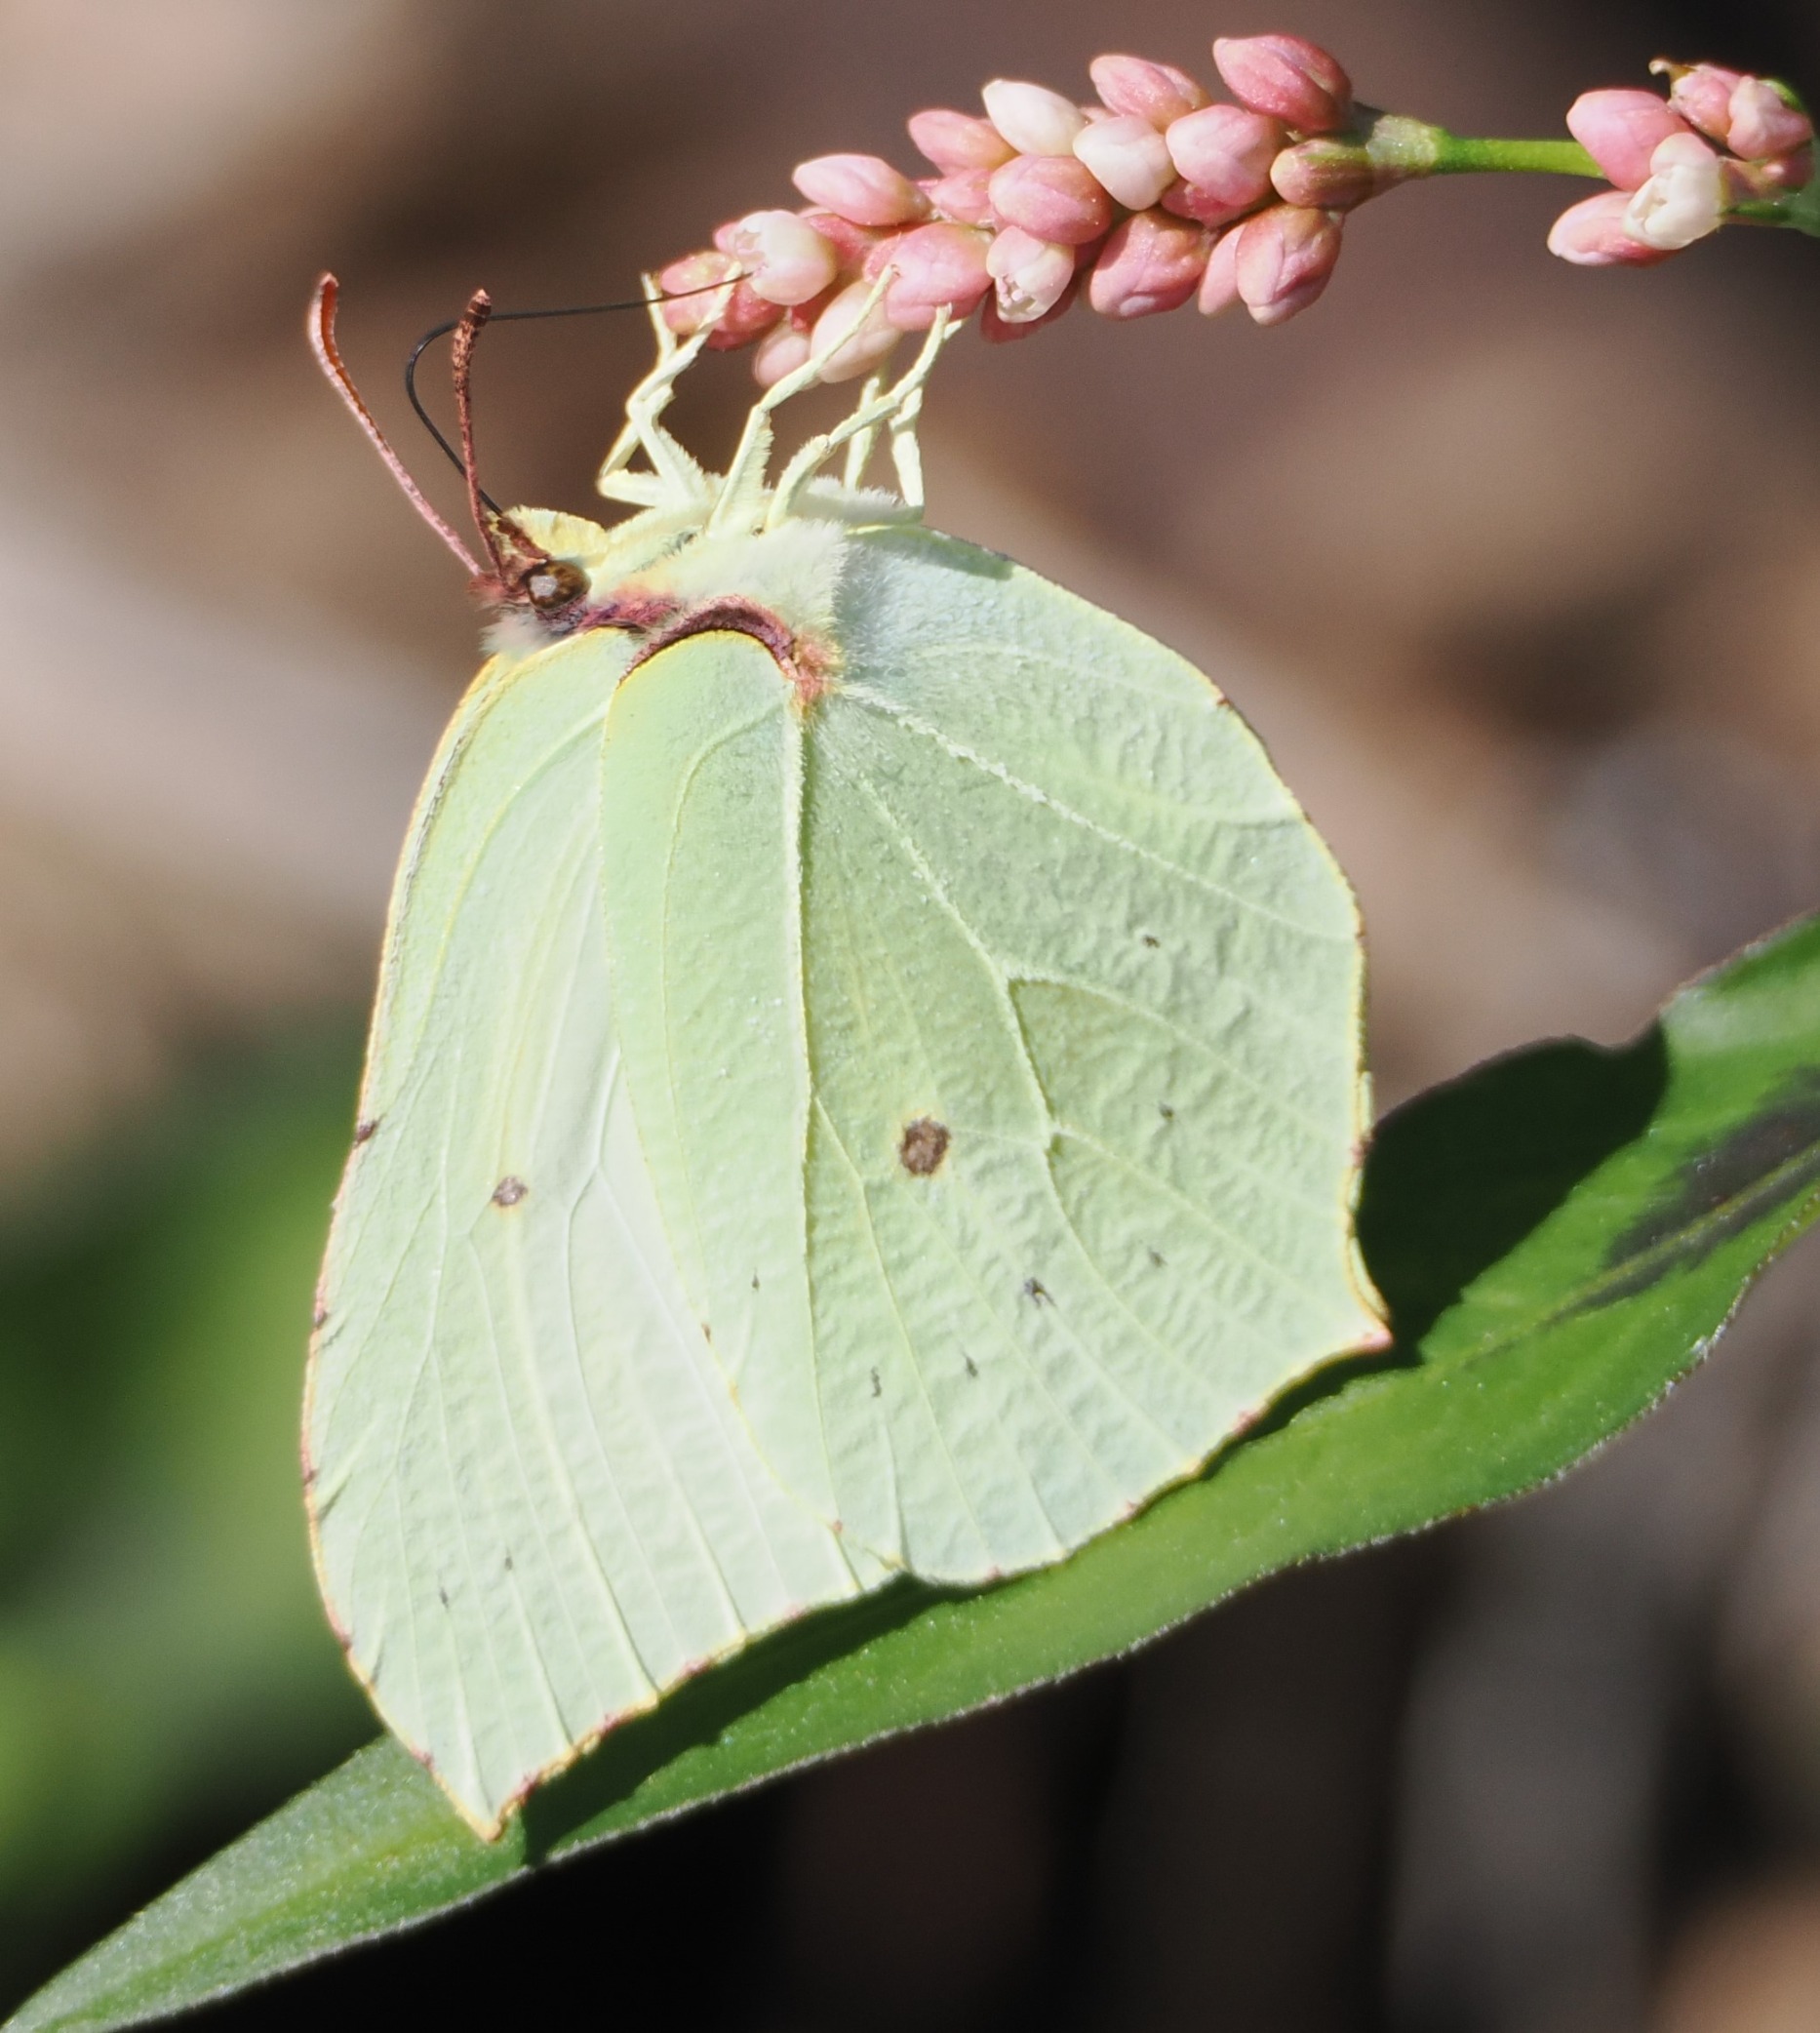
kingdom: Animalia
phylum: Arthropoda
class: Insecta
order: Lepidoptera
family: Pieridae
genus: Gonepteryx
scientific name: Gonepteryx rhamni
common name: Citronsommerfugl
